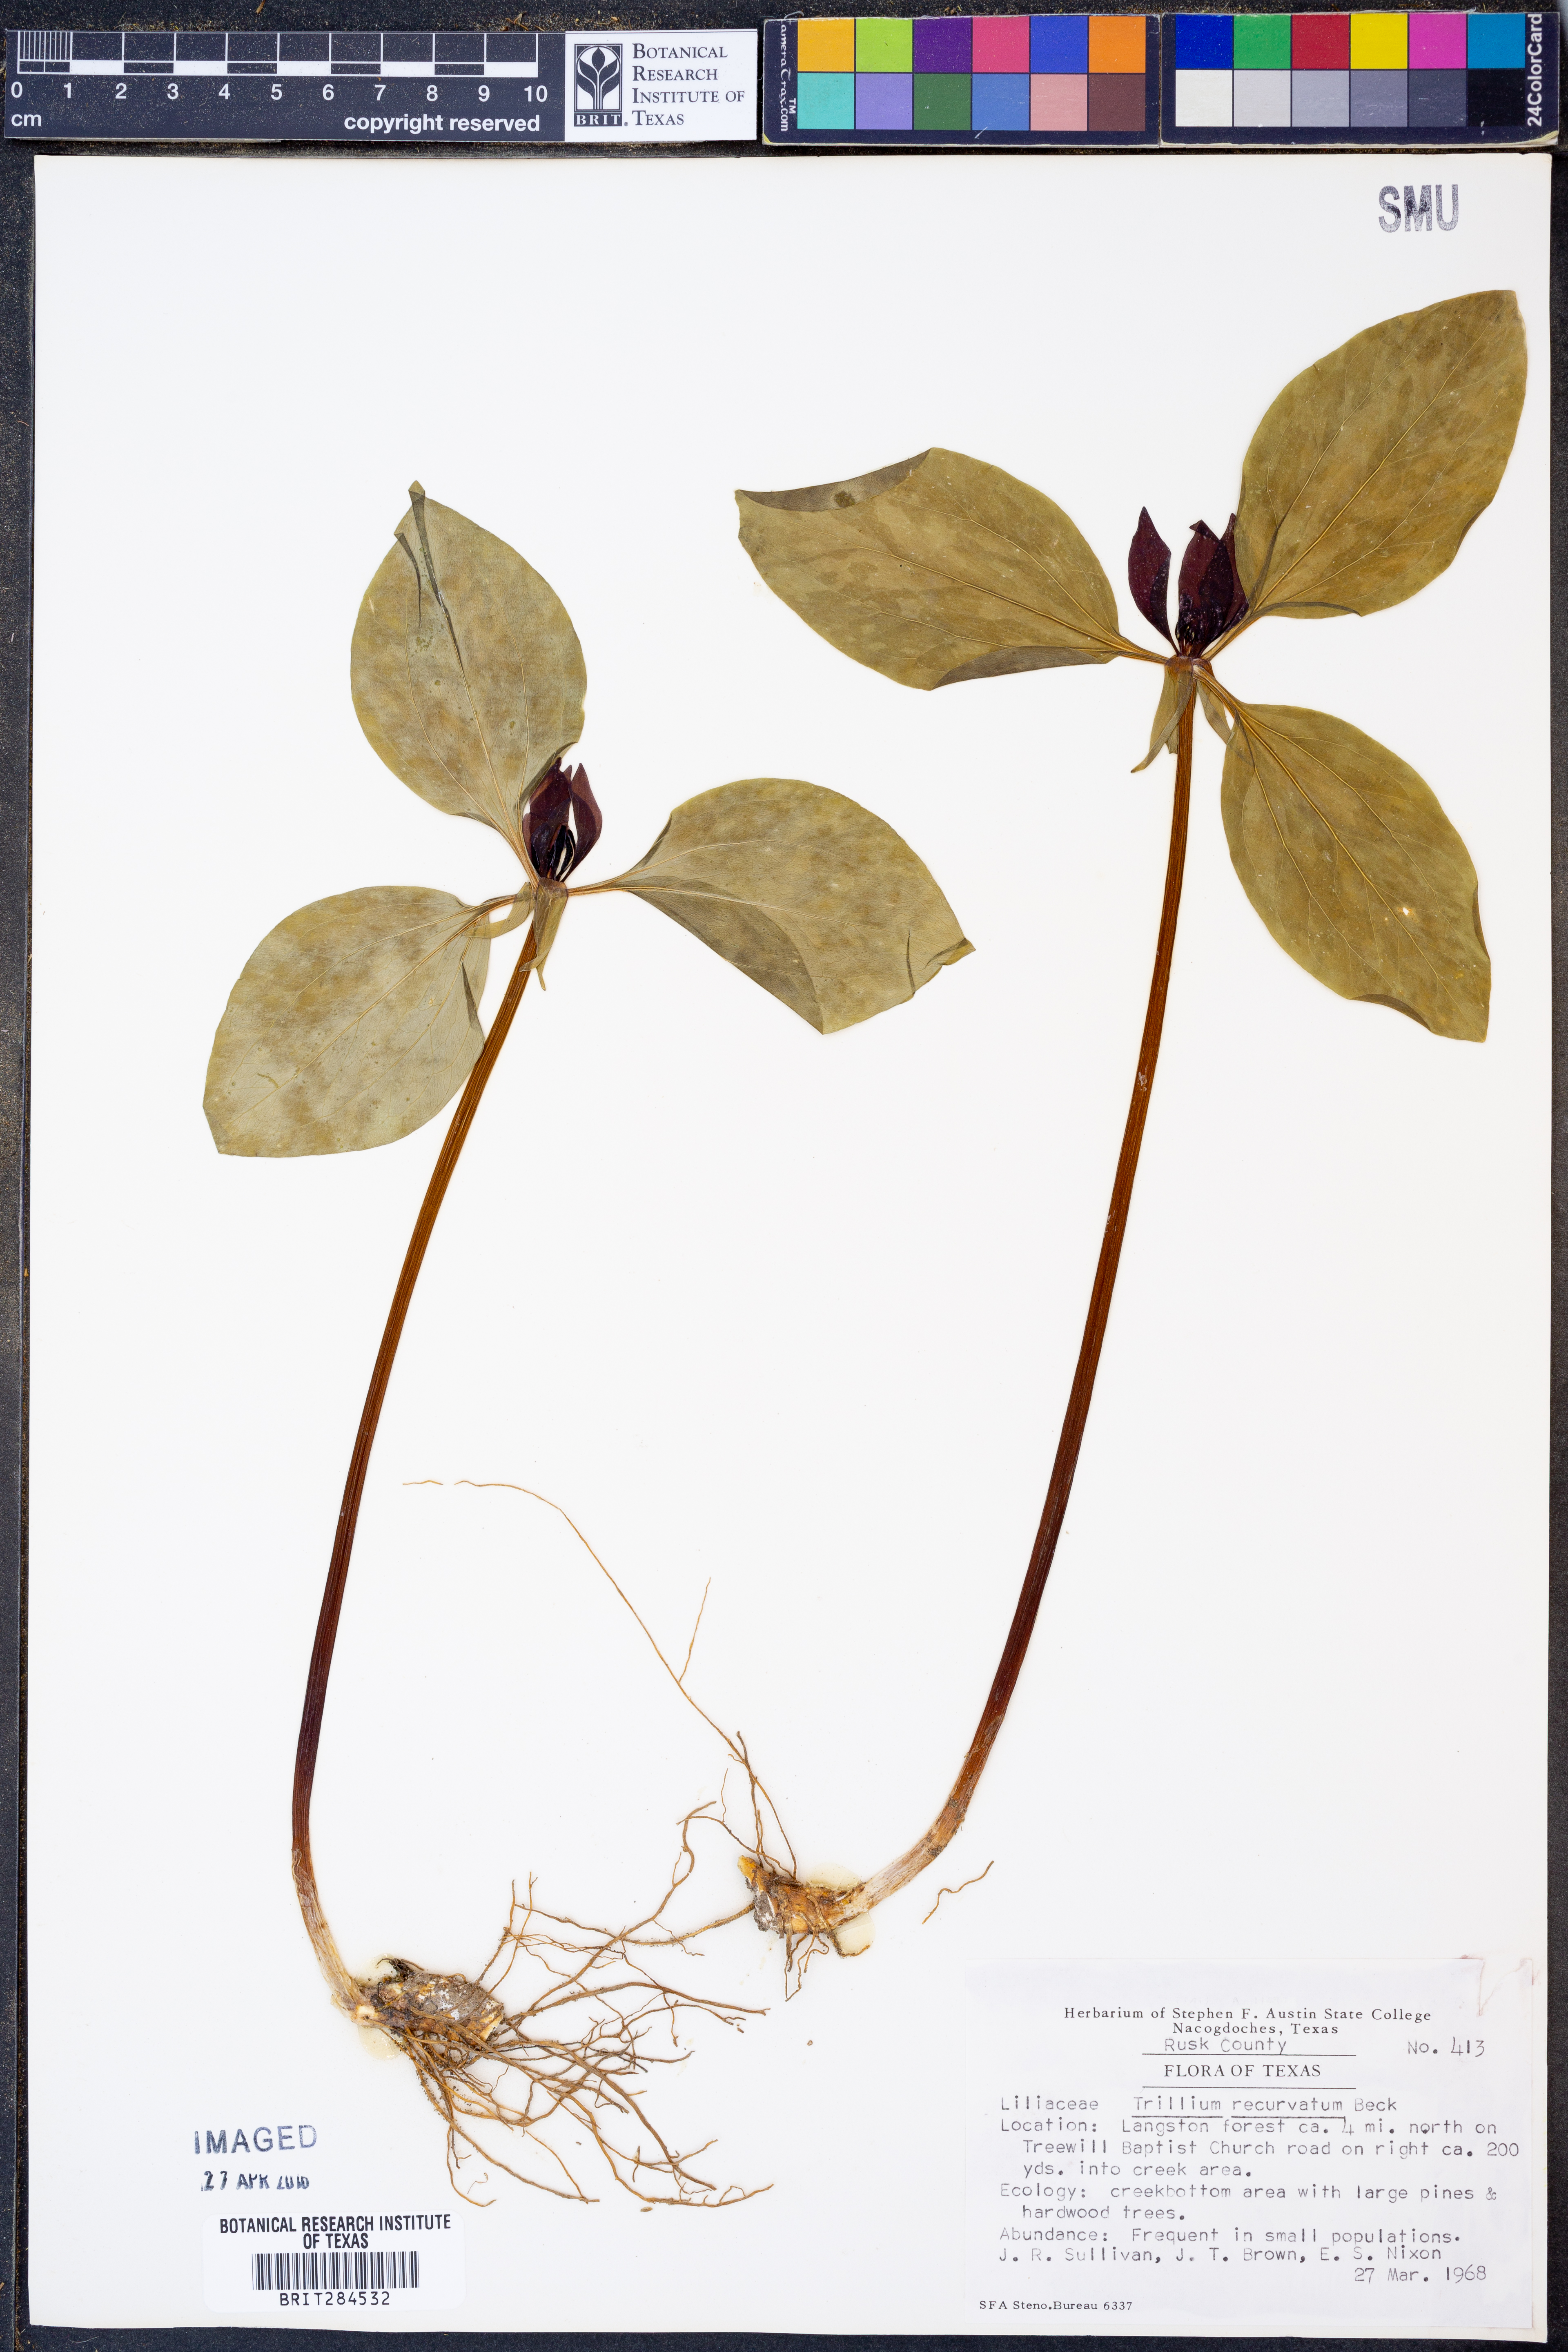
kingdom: Plantae
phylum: Tracheophyta
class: Liliopsida
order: Liliales
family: Melanthiaceae
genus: Trillium
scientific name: Trillium recurvatum
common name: Bloody butcher
